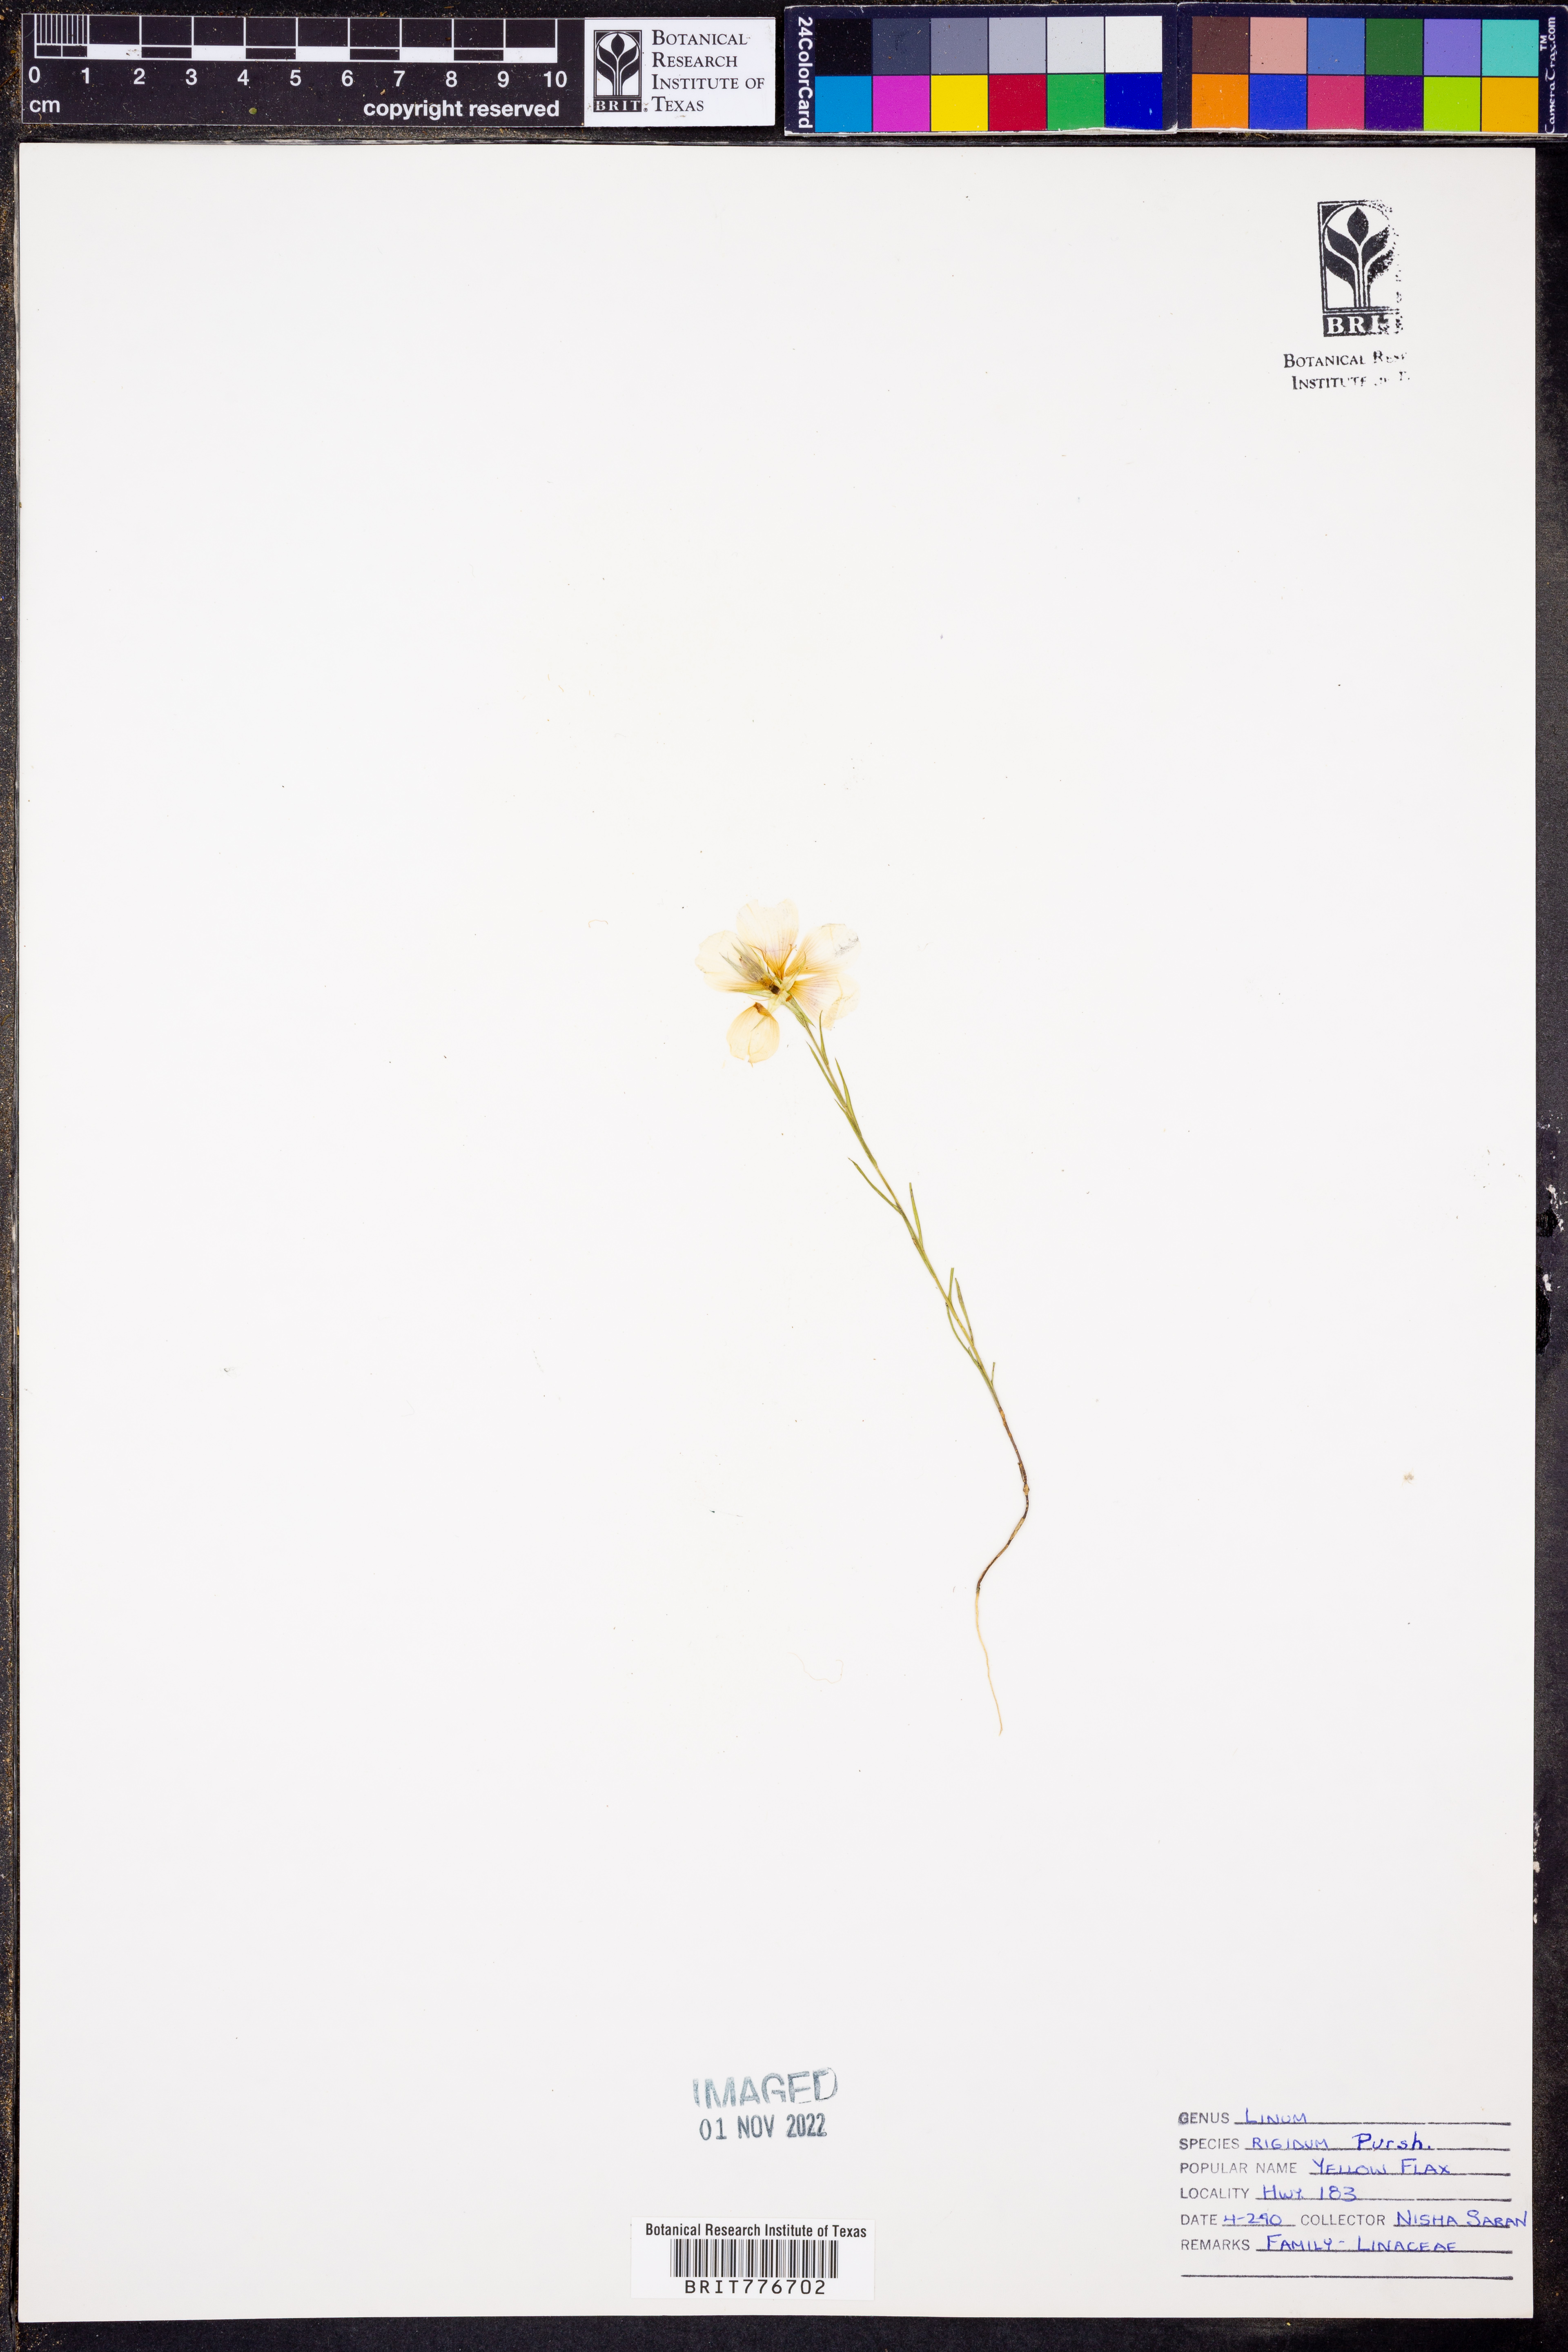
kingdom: Plantae
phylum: Tracheophyta
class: Magnoliopsida
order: Malpighiales
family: Linaceae
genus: Linum
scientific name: Linum rigidum
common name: Stiff-stem flax
